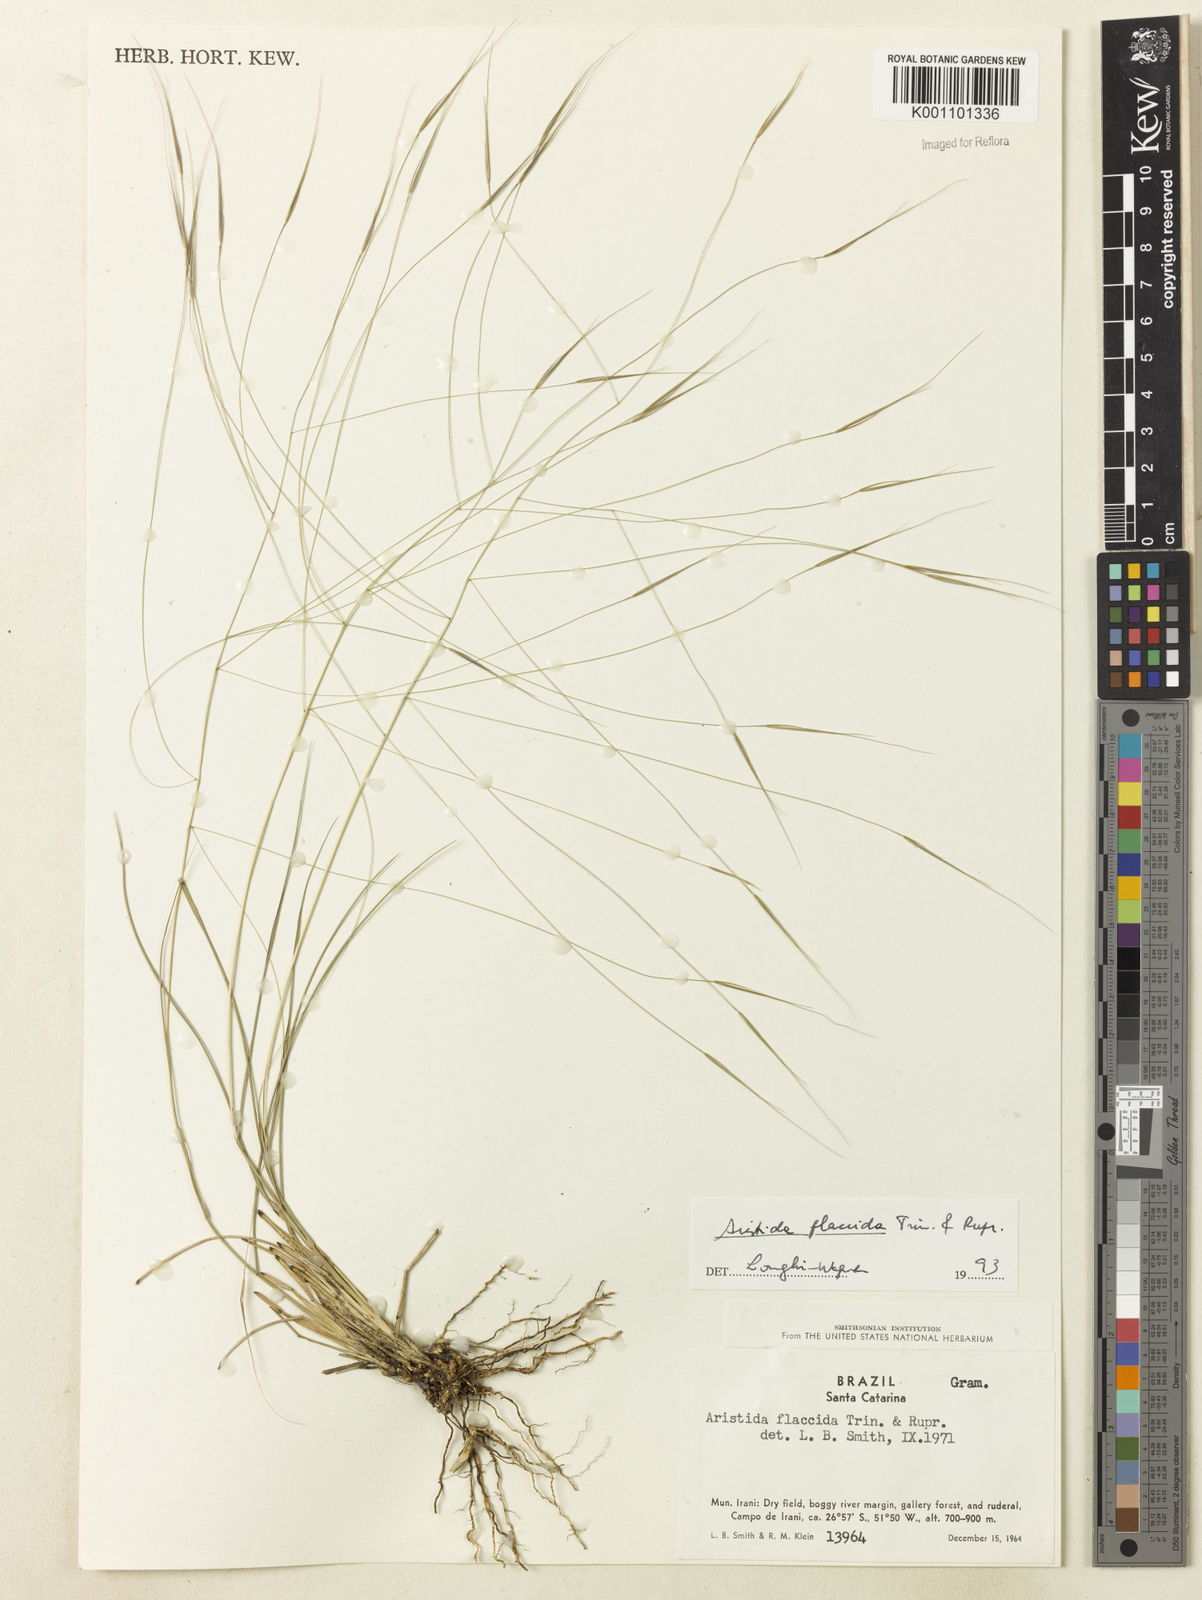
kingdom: Plantae
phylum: Tracheophyta
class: Liliopsida
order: Poales
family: Poaceae
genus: Aristida
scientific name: Aristida flaccida
